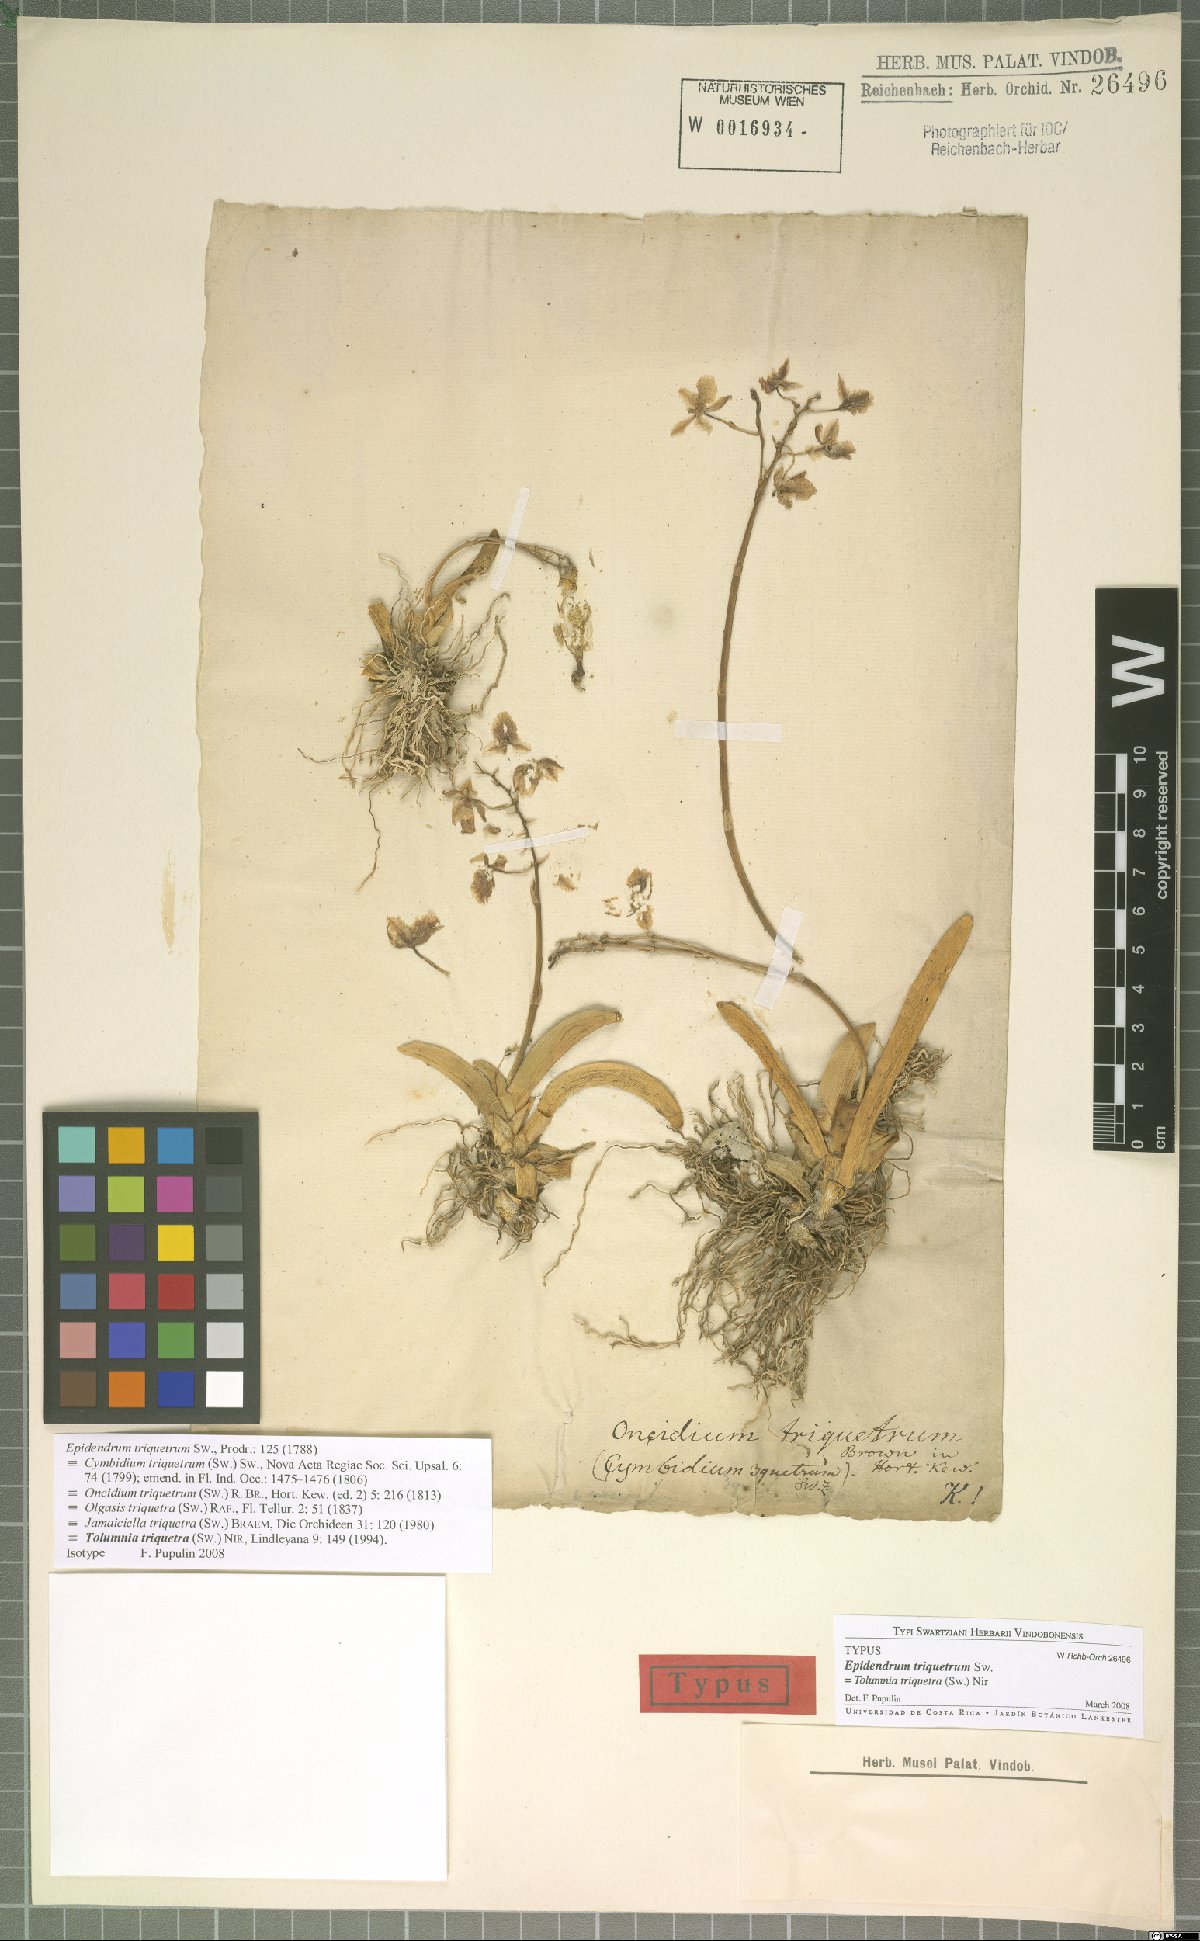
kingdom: Plantae
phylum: Tracheophyta
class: Liliopsida
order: Asparagales
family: Orchidaceae
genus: Tolumnia
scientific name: Tolumnia triquetra
